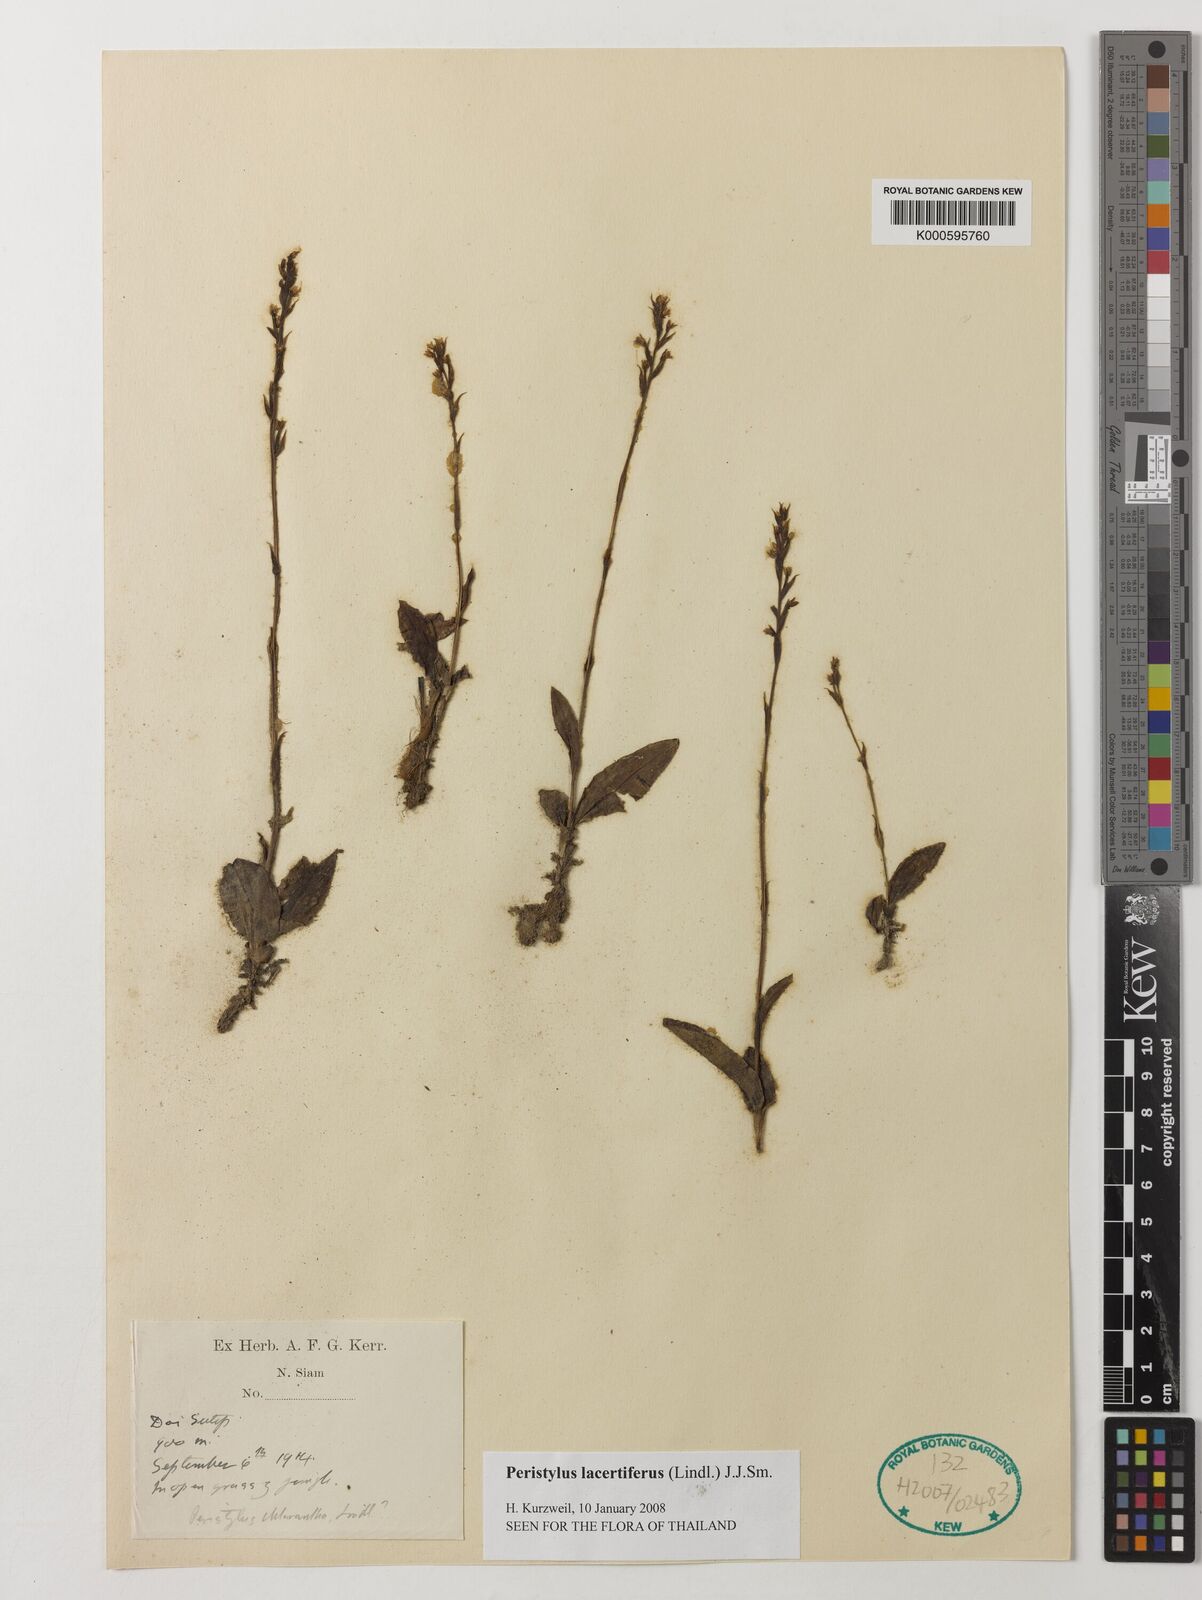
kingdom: Plantae
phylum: Tracheophyta
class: Liliopsida
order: Asparagales
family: Orchidaceae
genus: Peristylus
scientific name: Peristylus
